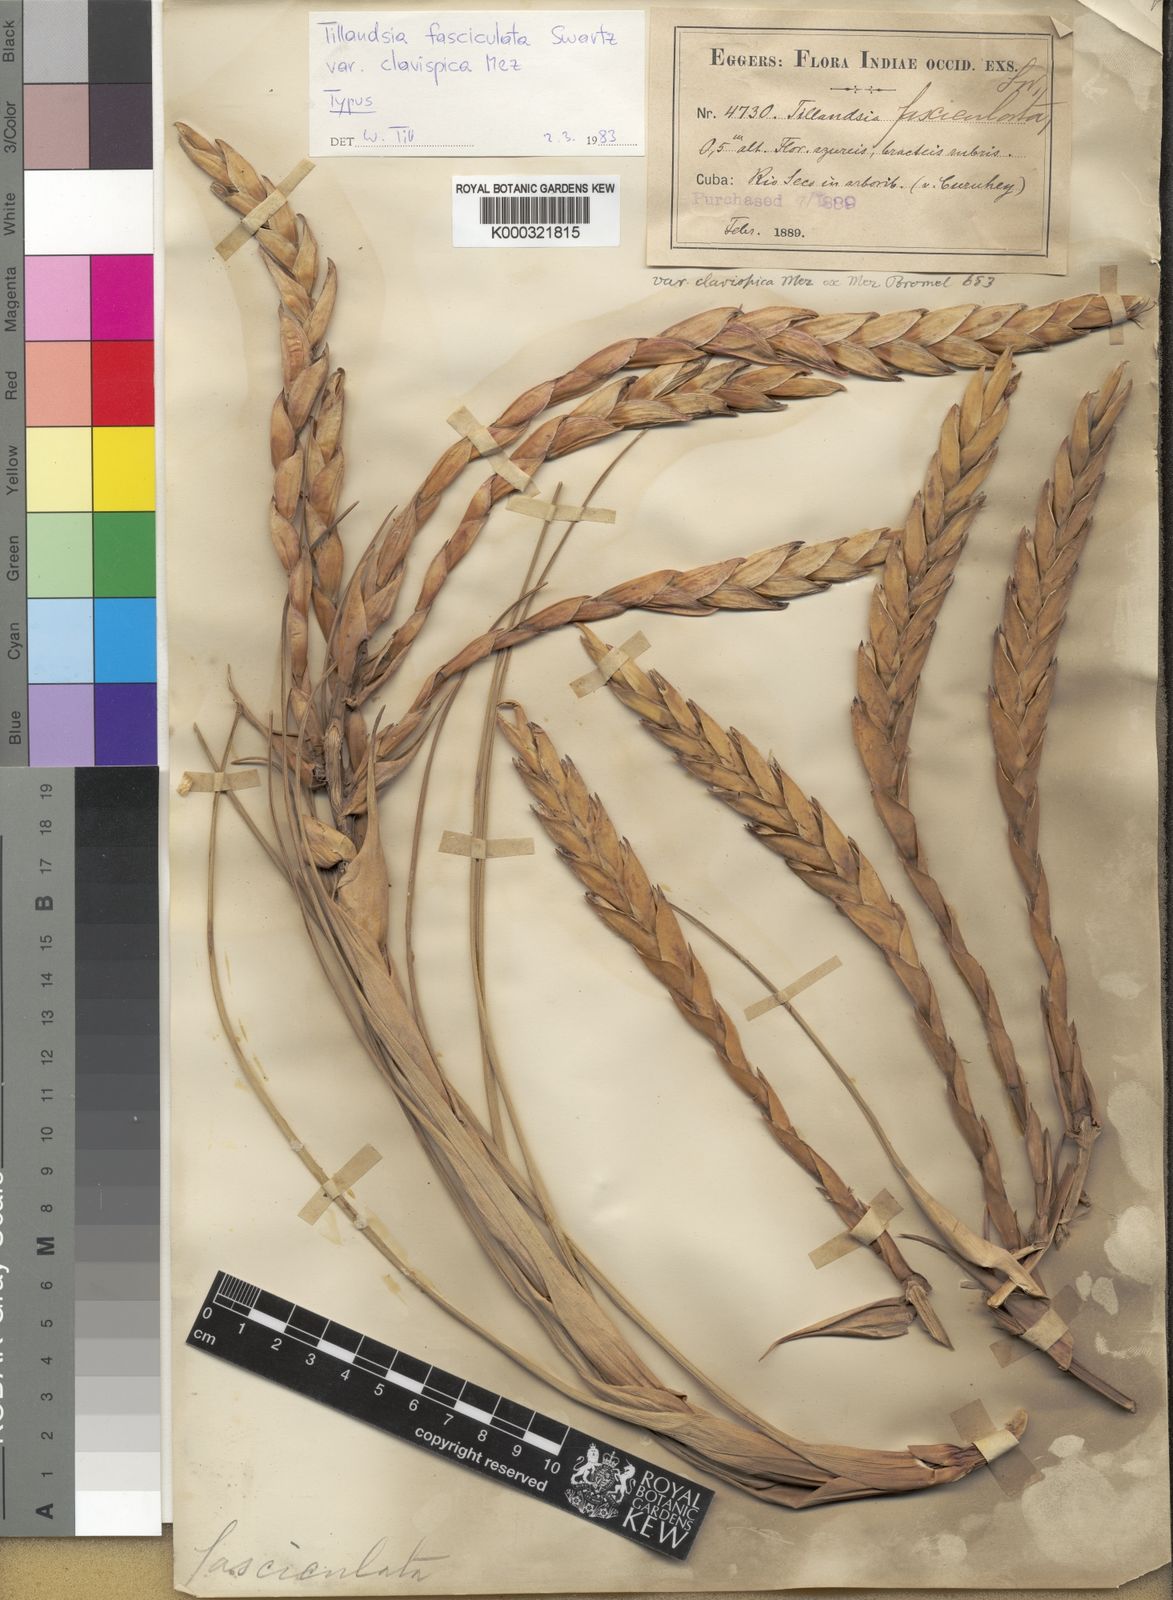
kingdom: Plantae
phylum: Tracheophyta
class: Liliopsida
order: Poales
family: Bromeliaceae
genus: Tillandsia
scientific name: Tillandsia fasciculata
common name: Giant airplant
